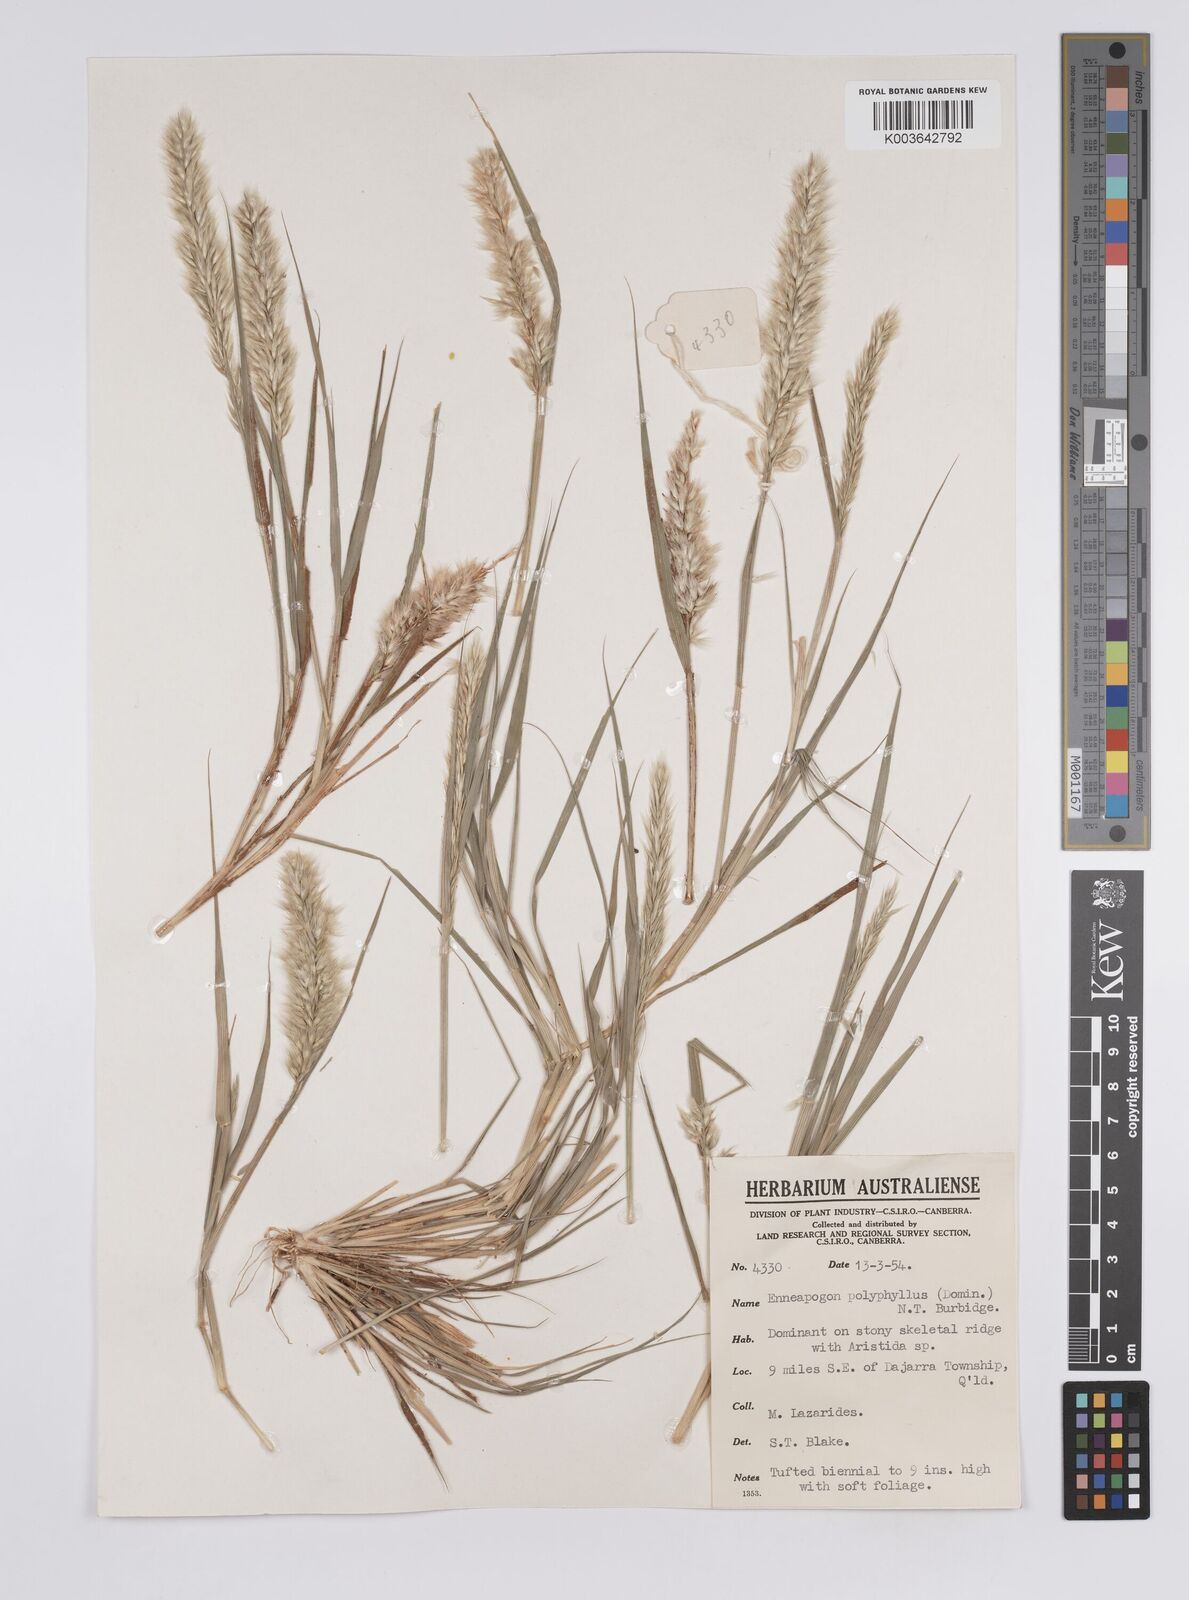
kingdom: Plantae
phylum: Tracheophyta
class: Liliopsida
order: Poales
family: Poaceae
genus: Enneapogon
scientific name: Enneapogon polyphyllus
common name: Leafy nineawn
